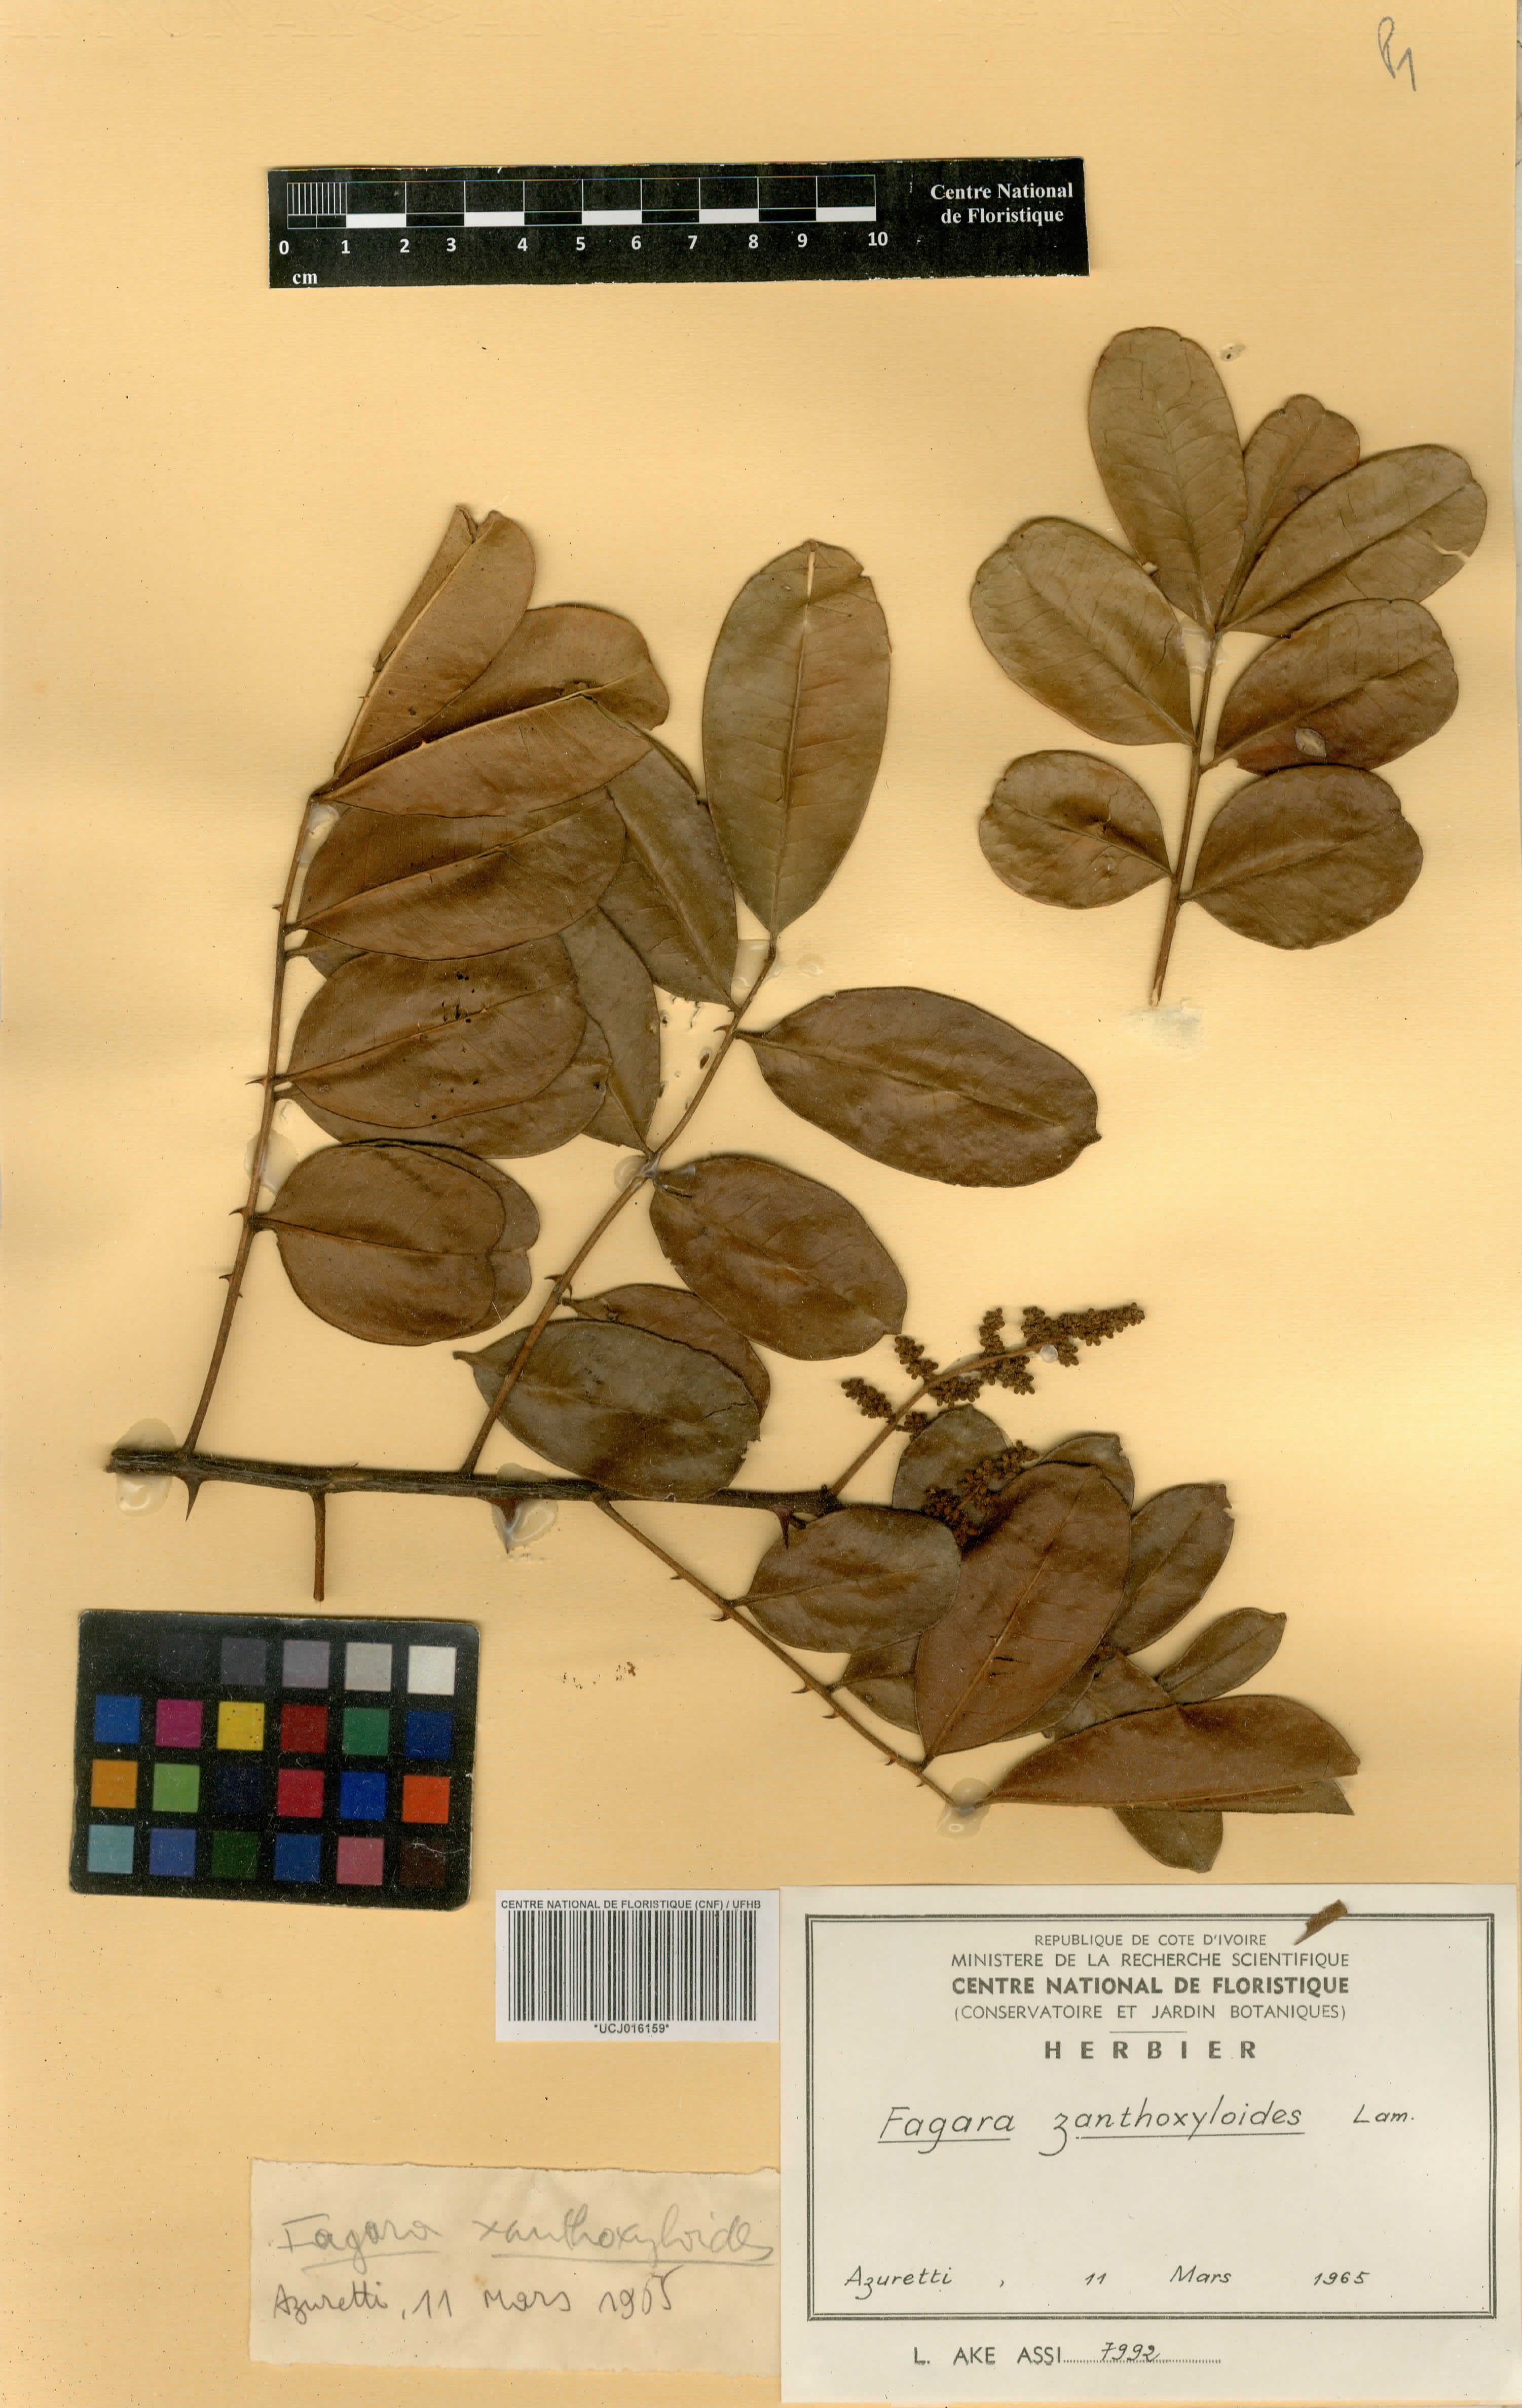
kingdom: Plantae
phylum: Tracheophyta
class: Magnoliopsida
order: Sapindales
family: Rutaceae
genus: Zanthoxylum
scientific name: Zanthoxylum zanthoxyloides
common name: Senegal prickly-ash
